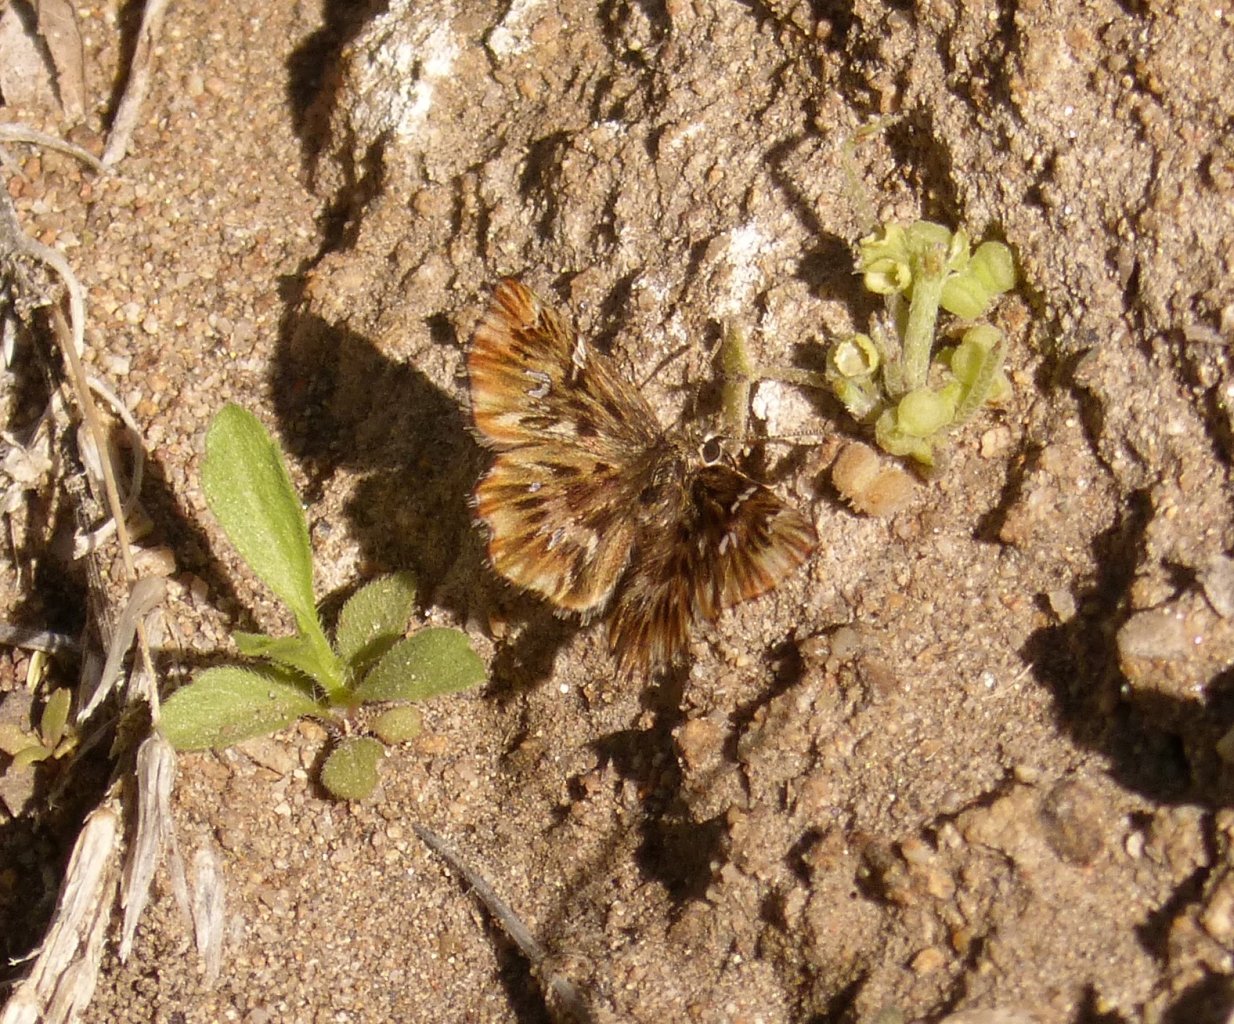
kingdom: Animalia
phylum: Arthropoda
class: Insecta
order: Lepidoptera
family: Hesperiidae
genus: Celotes
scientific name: Celotes nessus
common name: Common Streaky-Skipper
